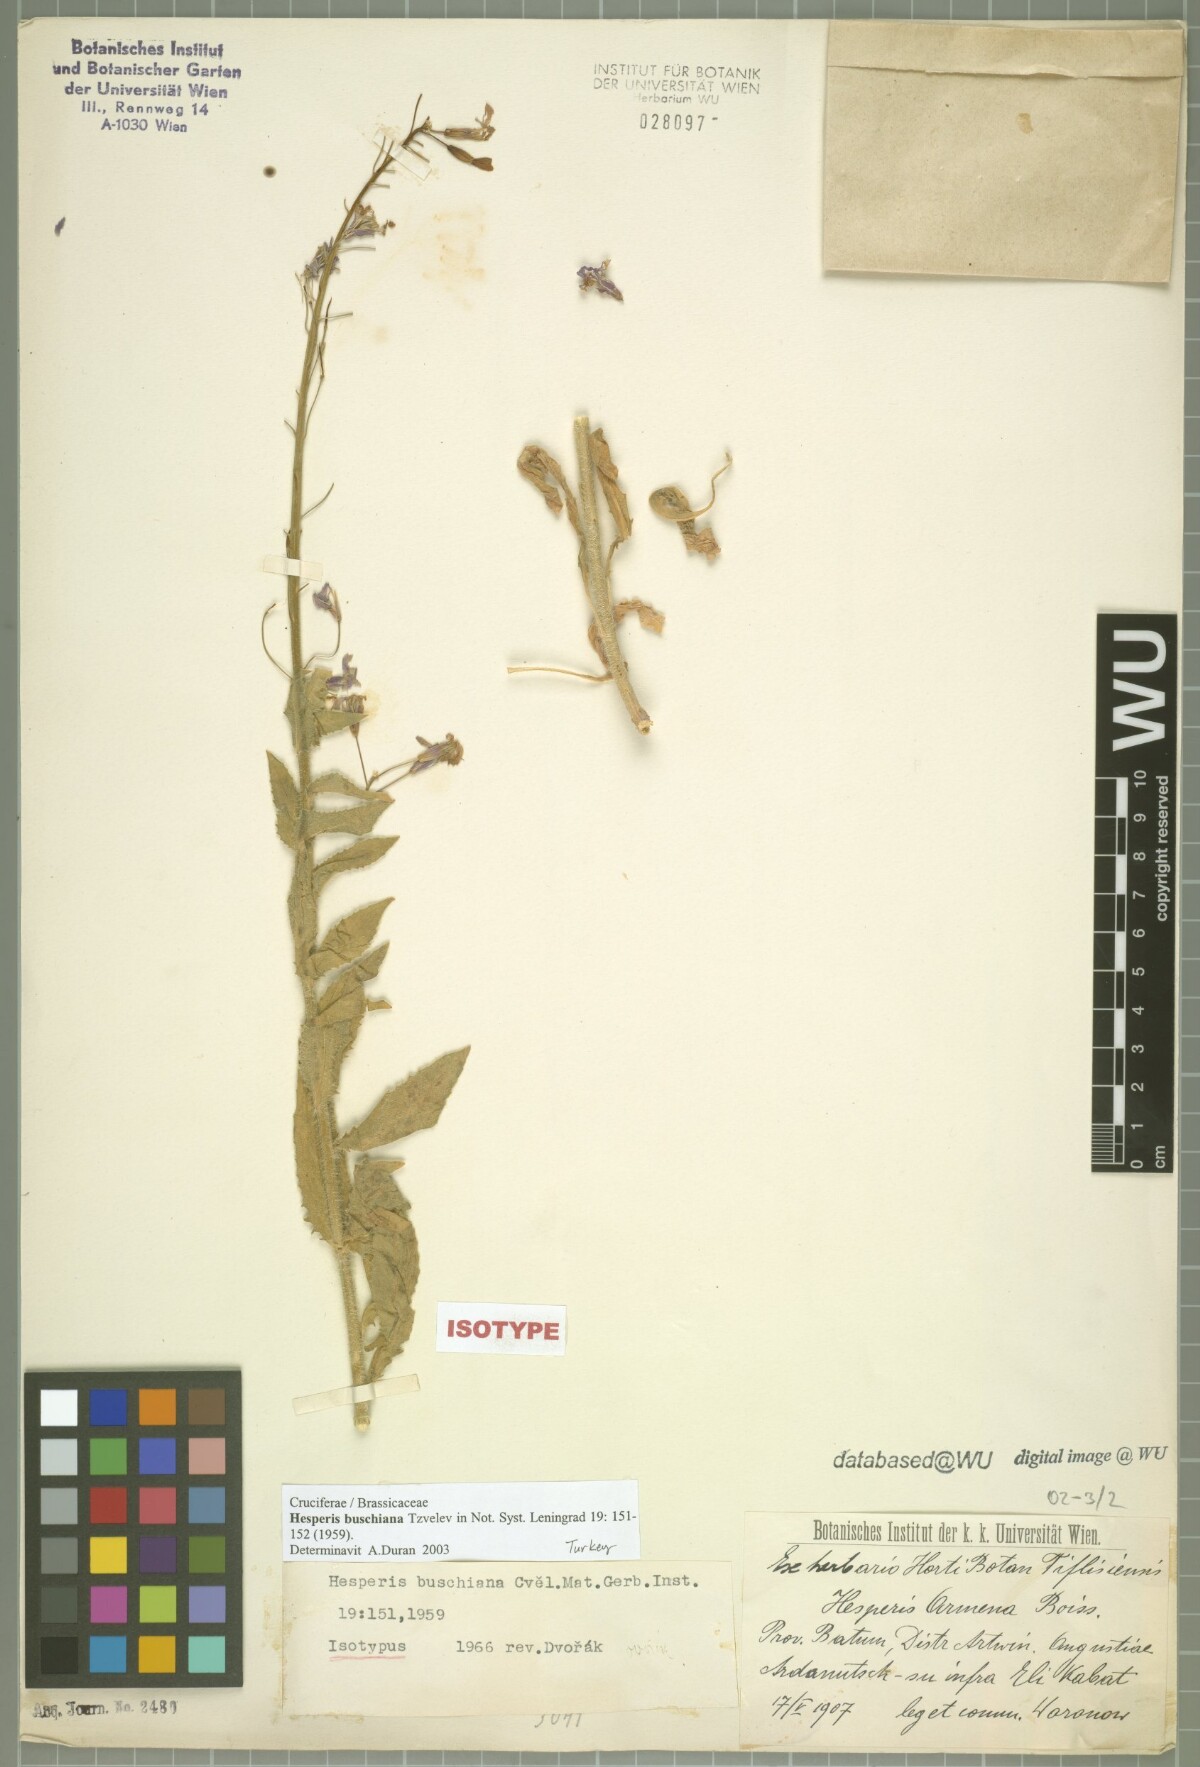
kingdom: Plantae
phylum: Tracheophyta
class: Magnoliopsida
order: Brassicales
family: Brassicaceae
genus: Hesperis
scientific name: Hesperis buschiana
